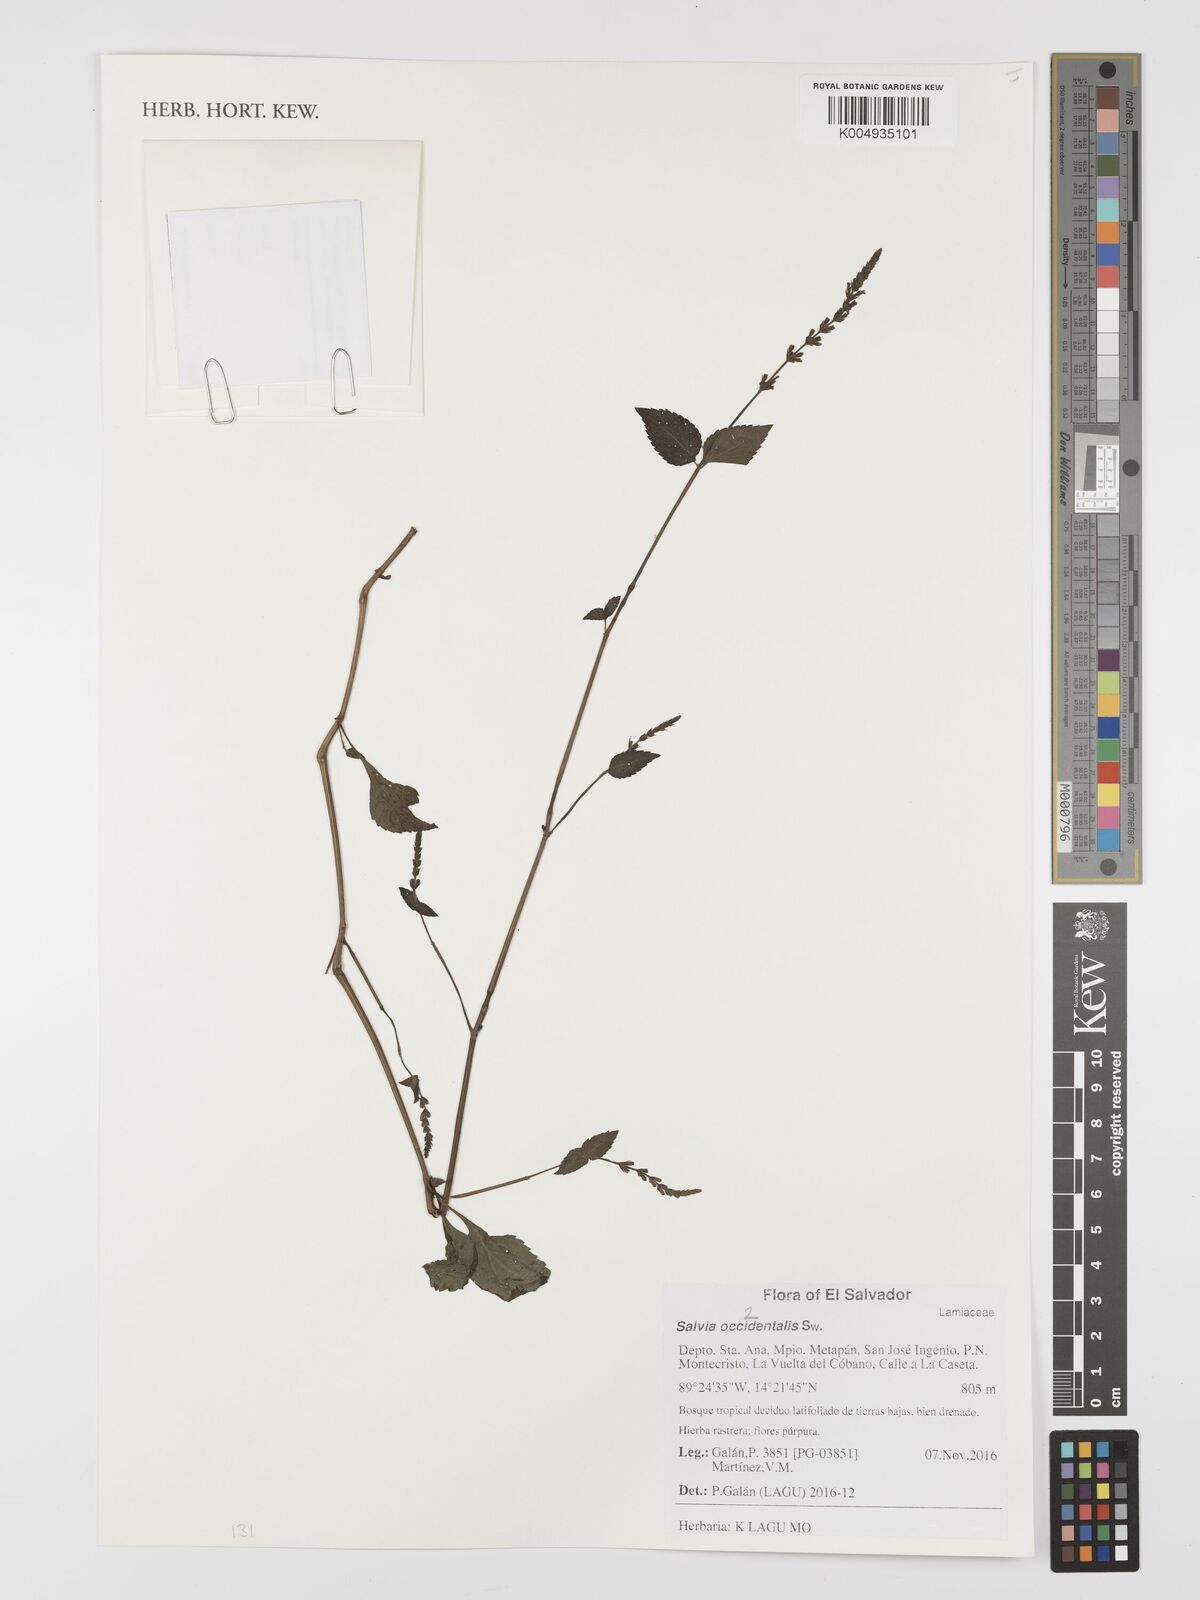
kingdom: Plantae
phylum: Tracheophyta
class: Magnoliopsida
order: Lamiales
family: Lamiaceae
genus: Salvia
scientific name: Salvia occidentalis
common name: West indian sage
